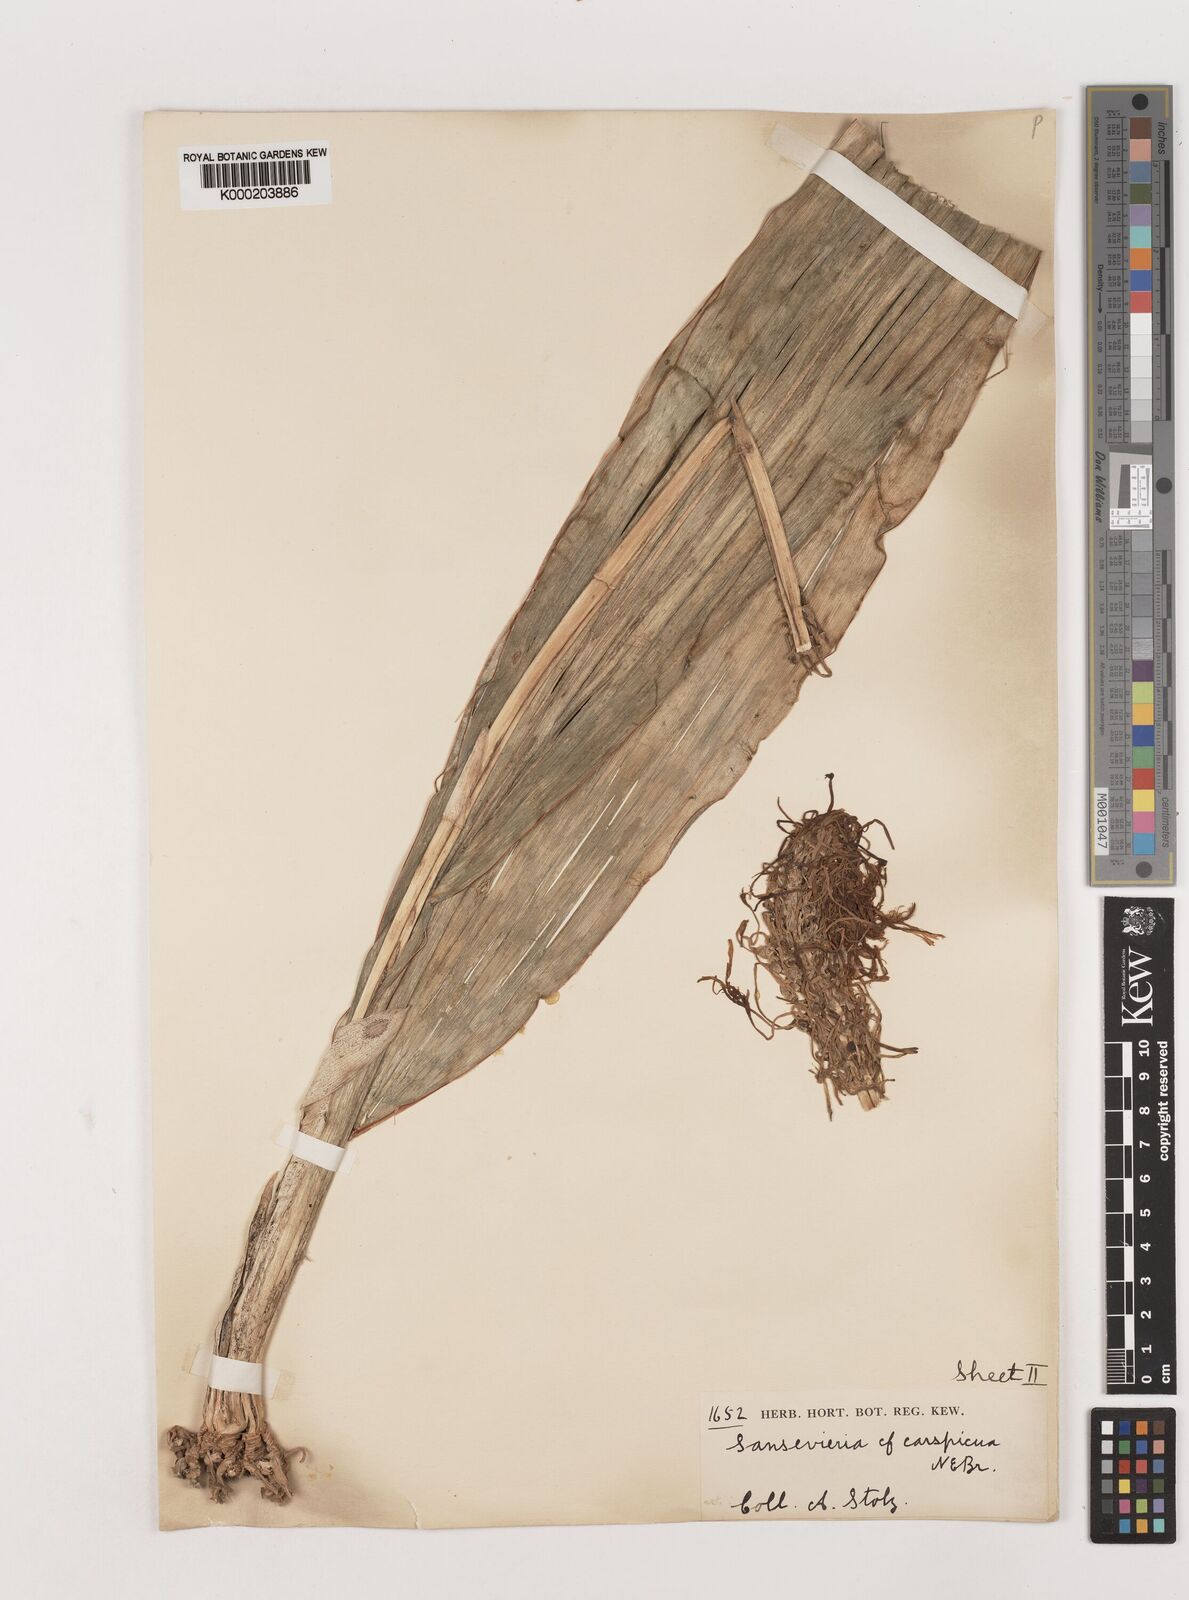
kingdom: Plantae
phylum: Tracheophyta
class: Liliopsida
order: Asparagales
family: Asparagaceae
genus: Dracaena
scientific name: Dracaena conspicua
